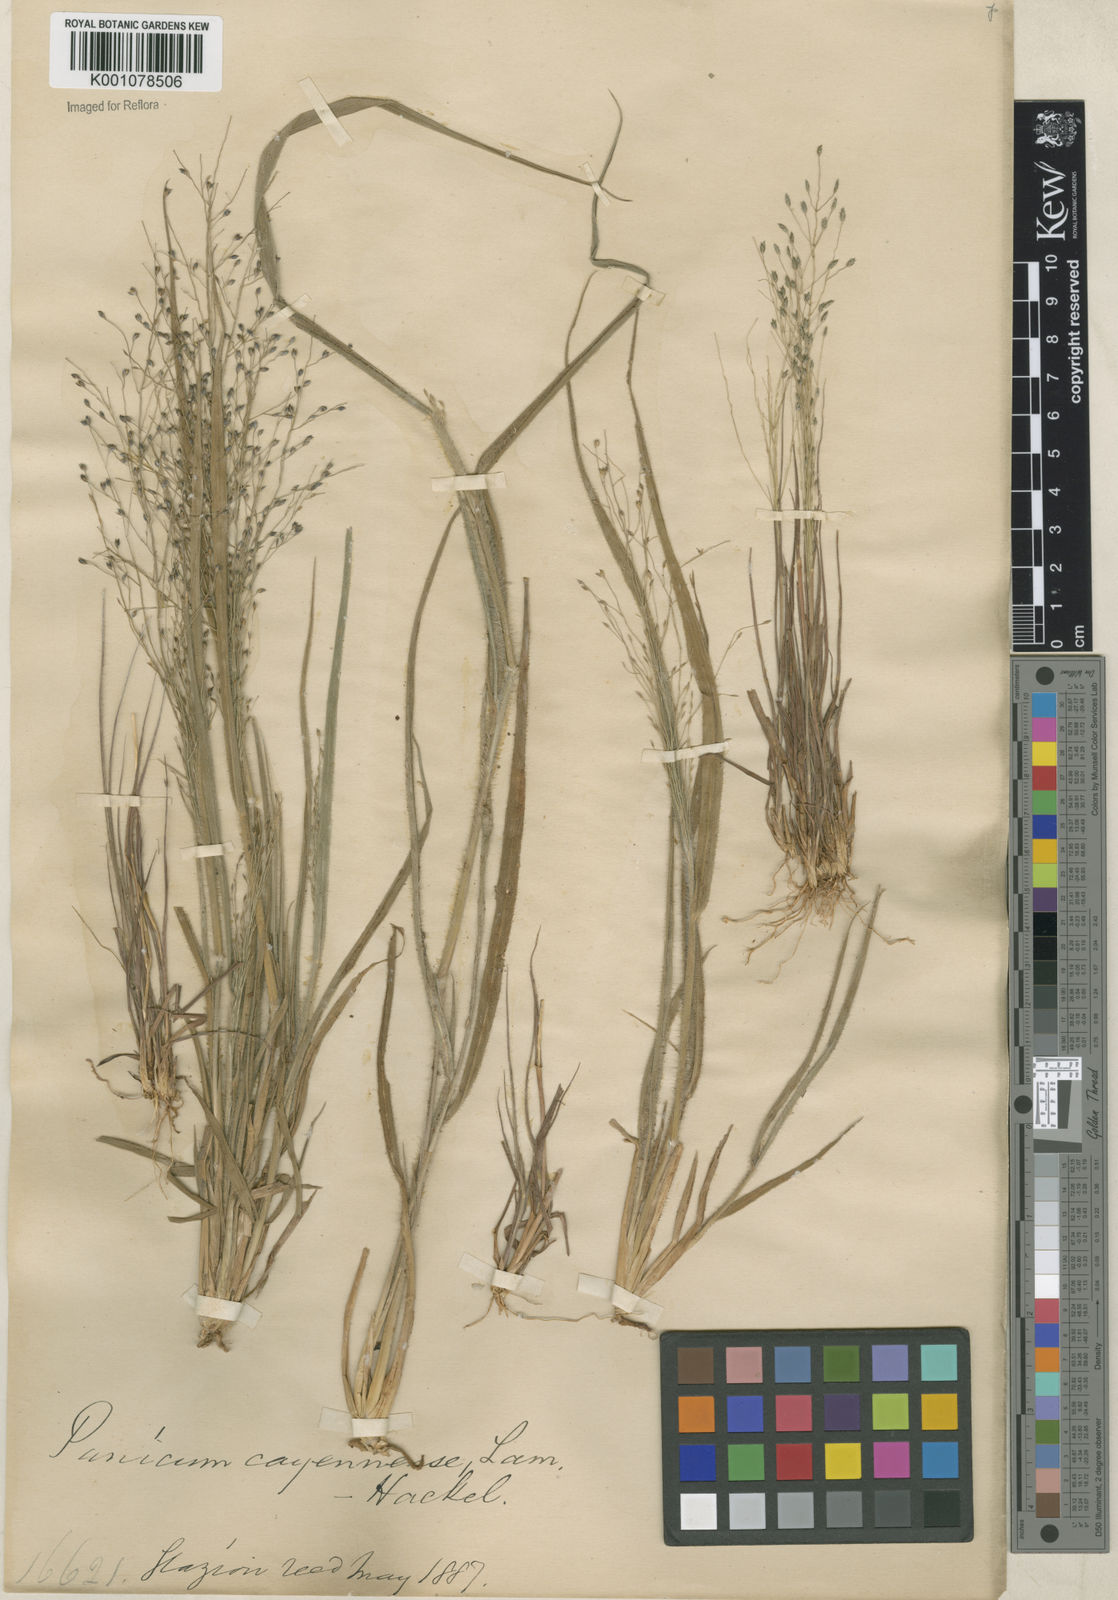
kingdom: Plantae
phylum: Tracheophyta
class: Liliopsida
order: Poales
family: Poaceae
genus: Panicum
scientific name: Panicum campestre
